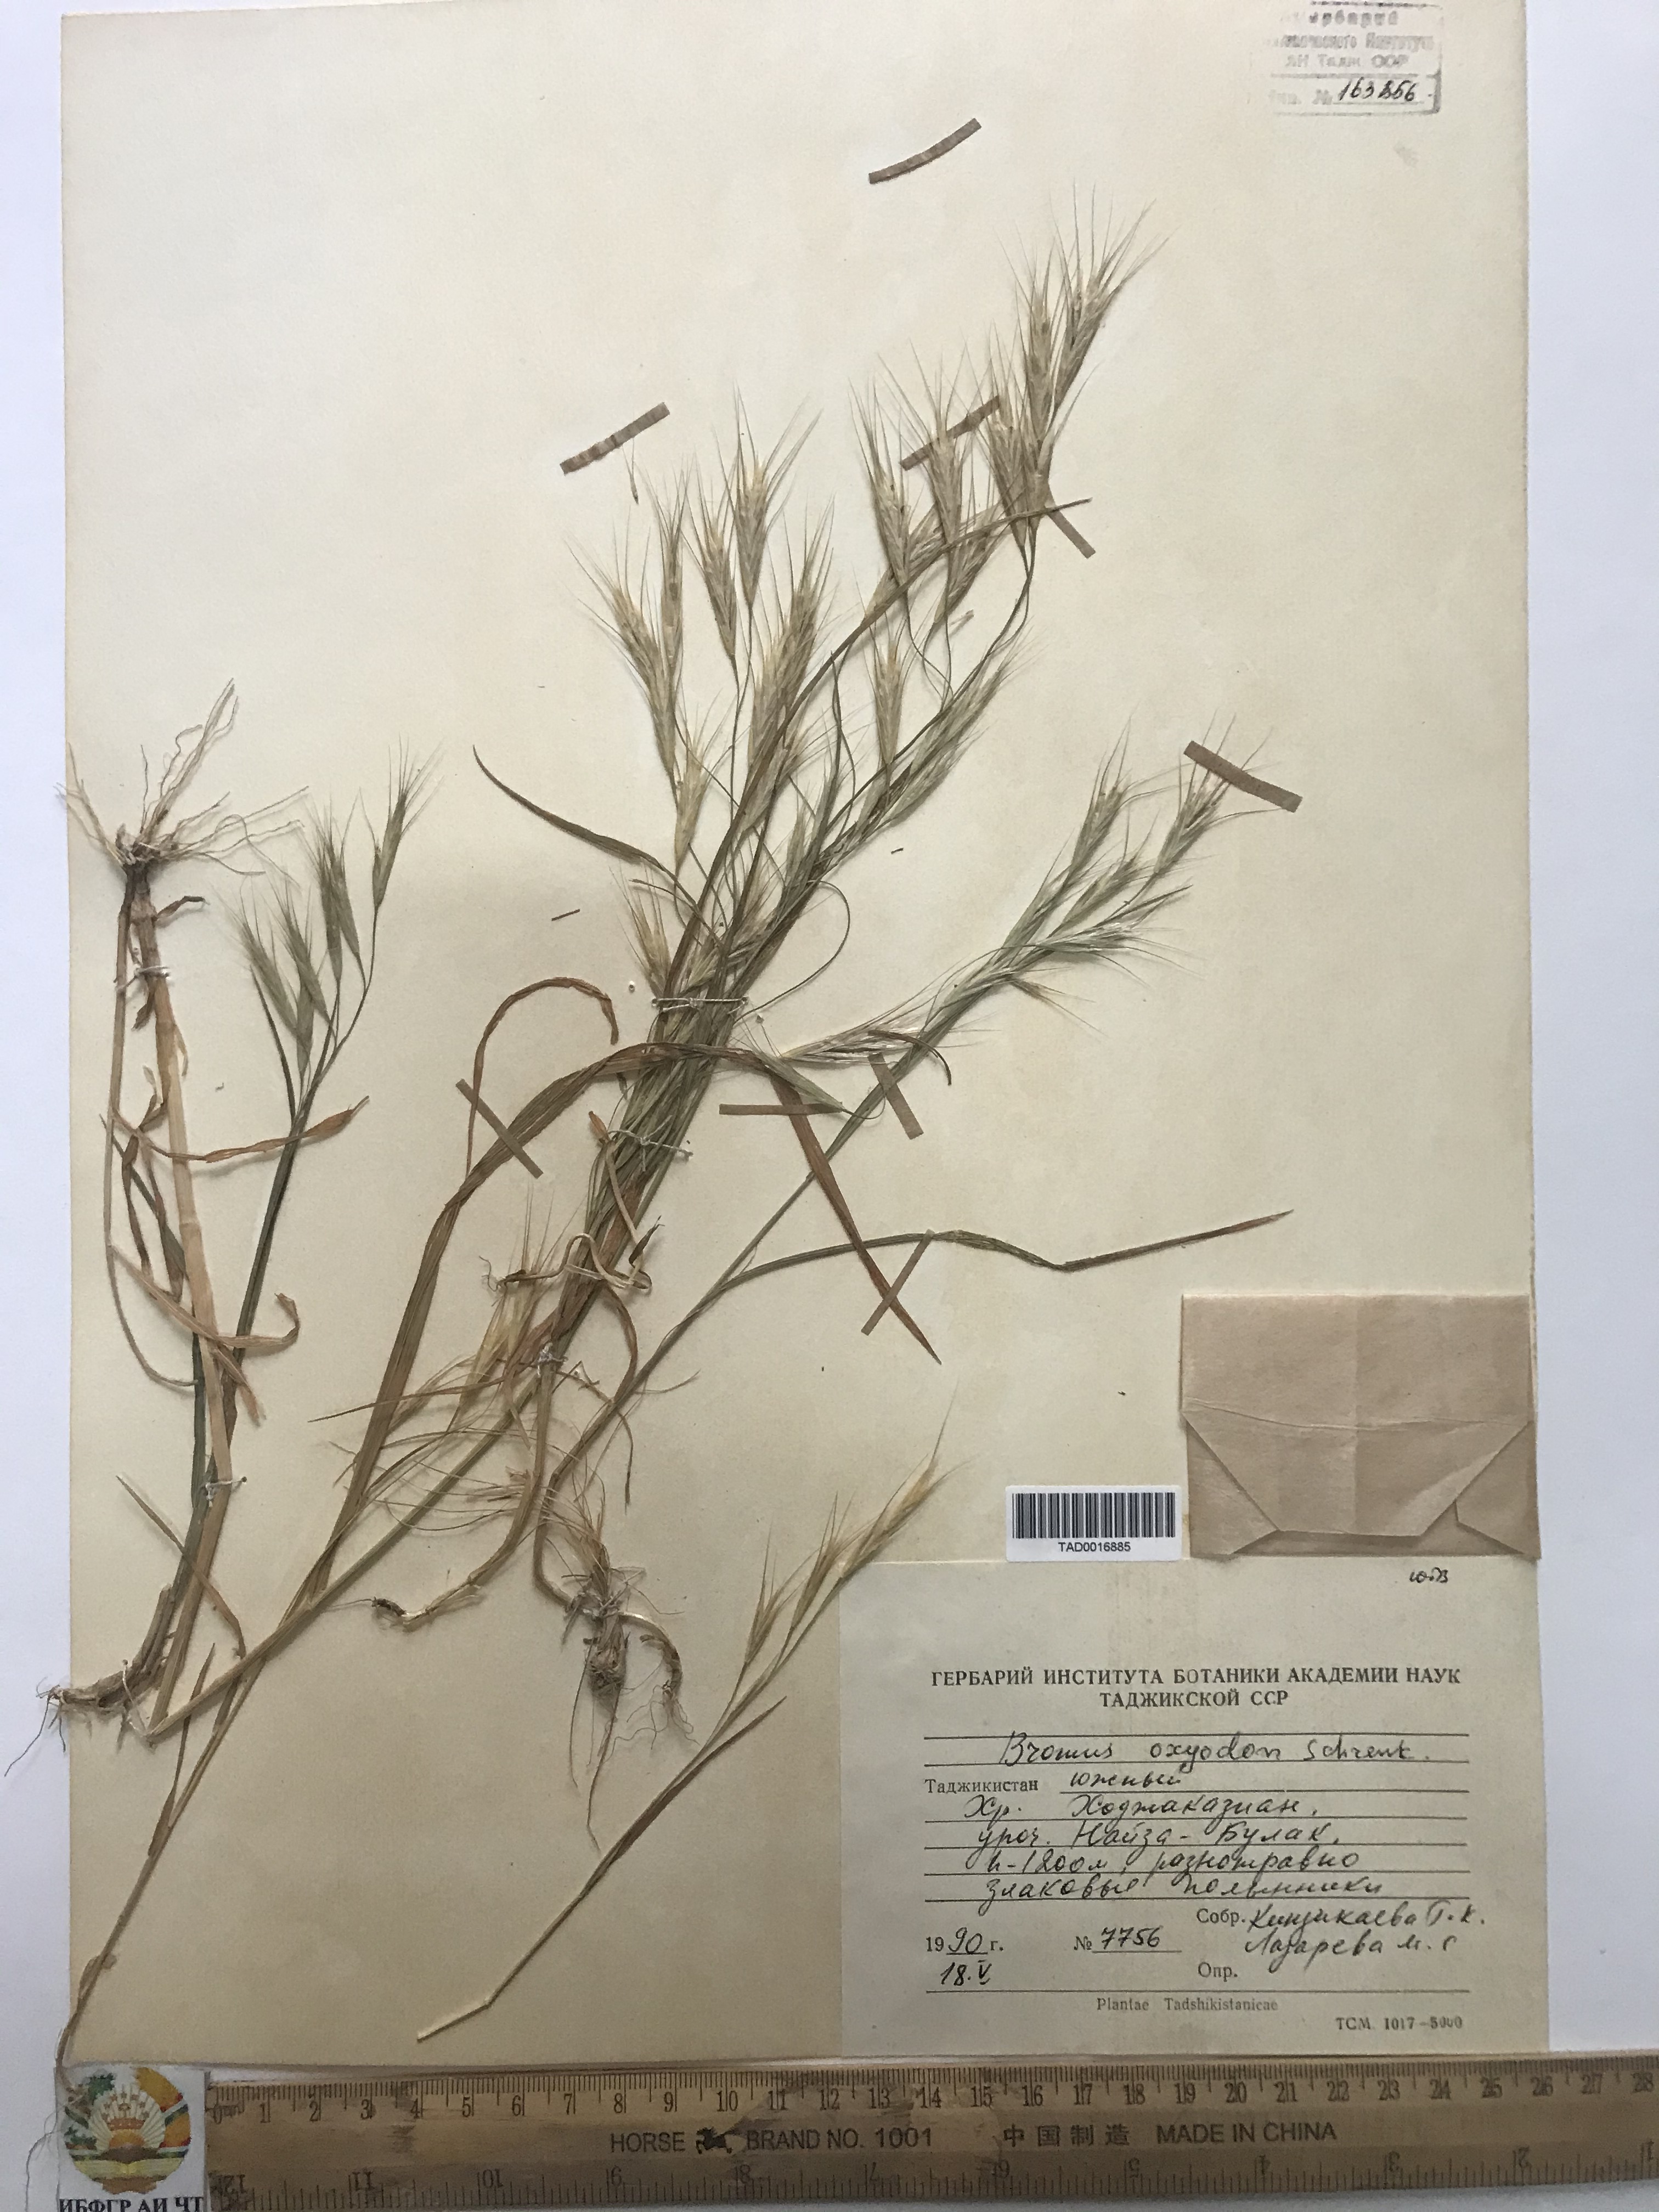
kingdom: Plantae
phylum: Tracheophyta
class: Liliopsida
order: Poales
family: Poaceae
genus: Bromus
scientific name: Bromus oxyodon
